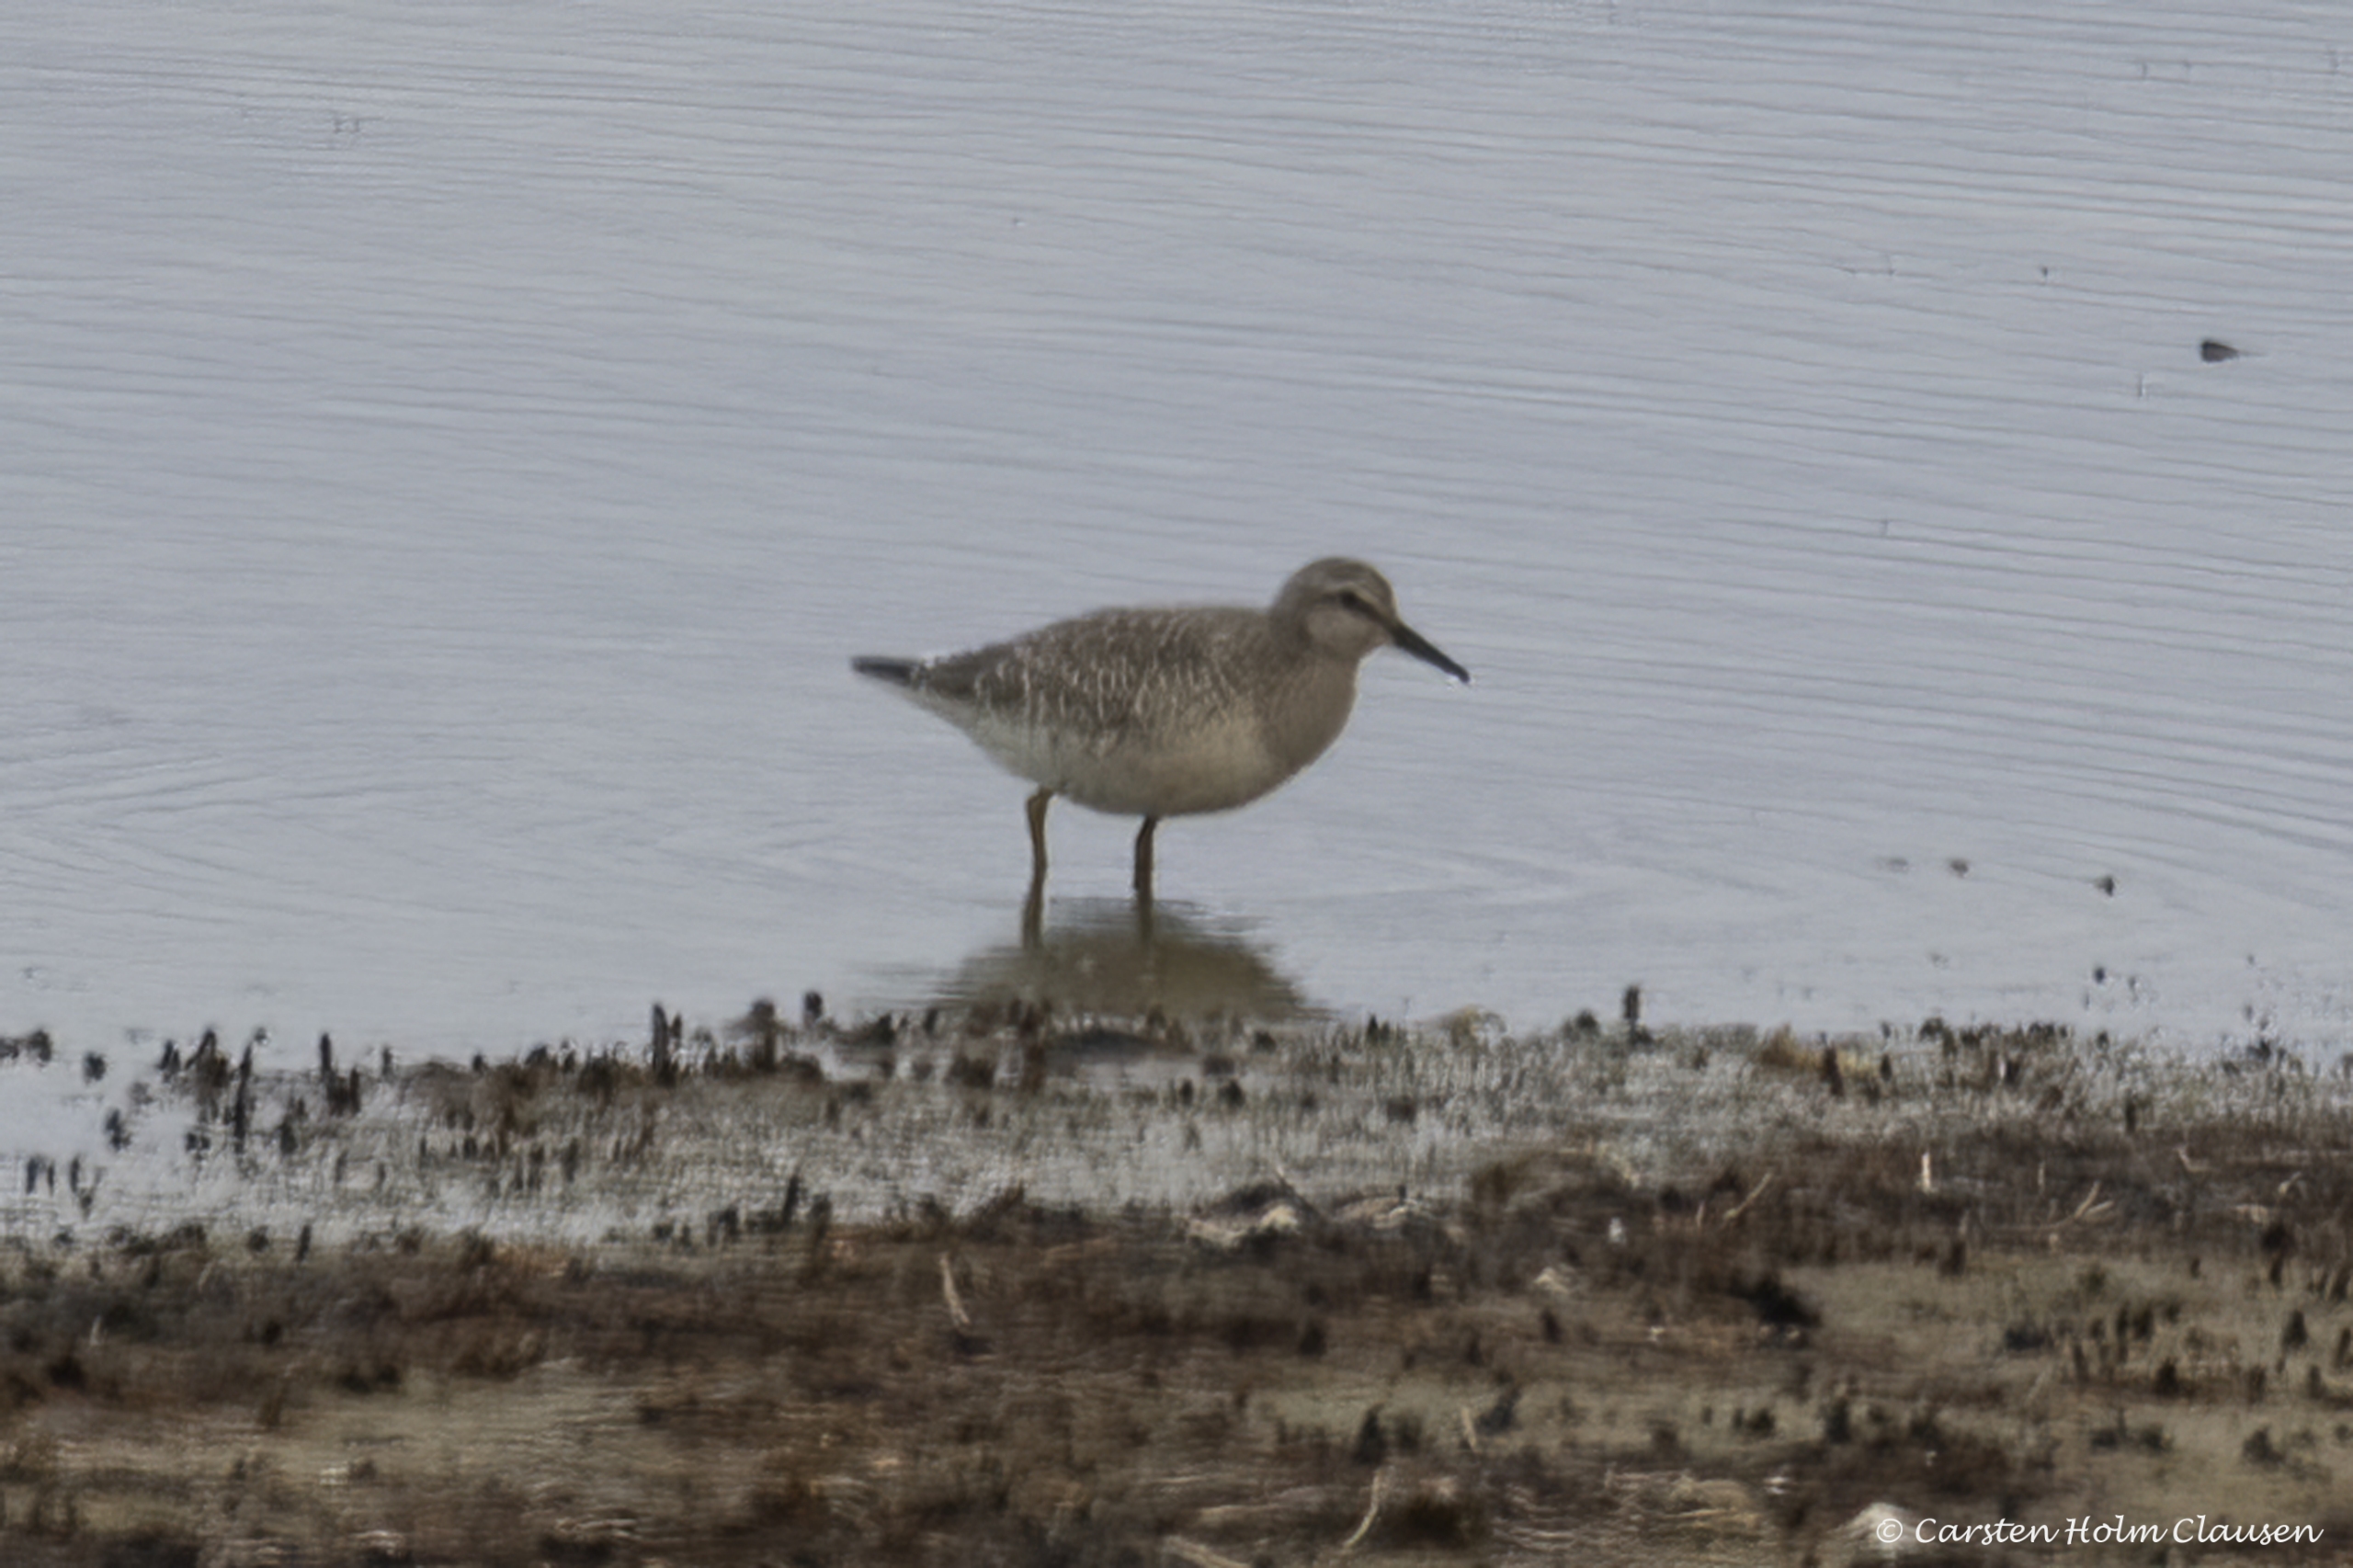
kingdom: Animalia
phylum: Chordata
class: Aves
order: Charadriiformes
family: Scolopacidae
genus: Calidris
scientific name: Calidris canutus
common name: Islandsk ryle
